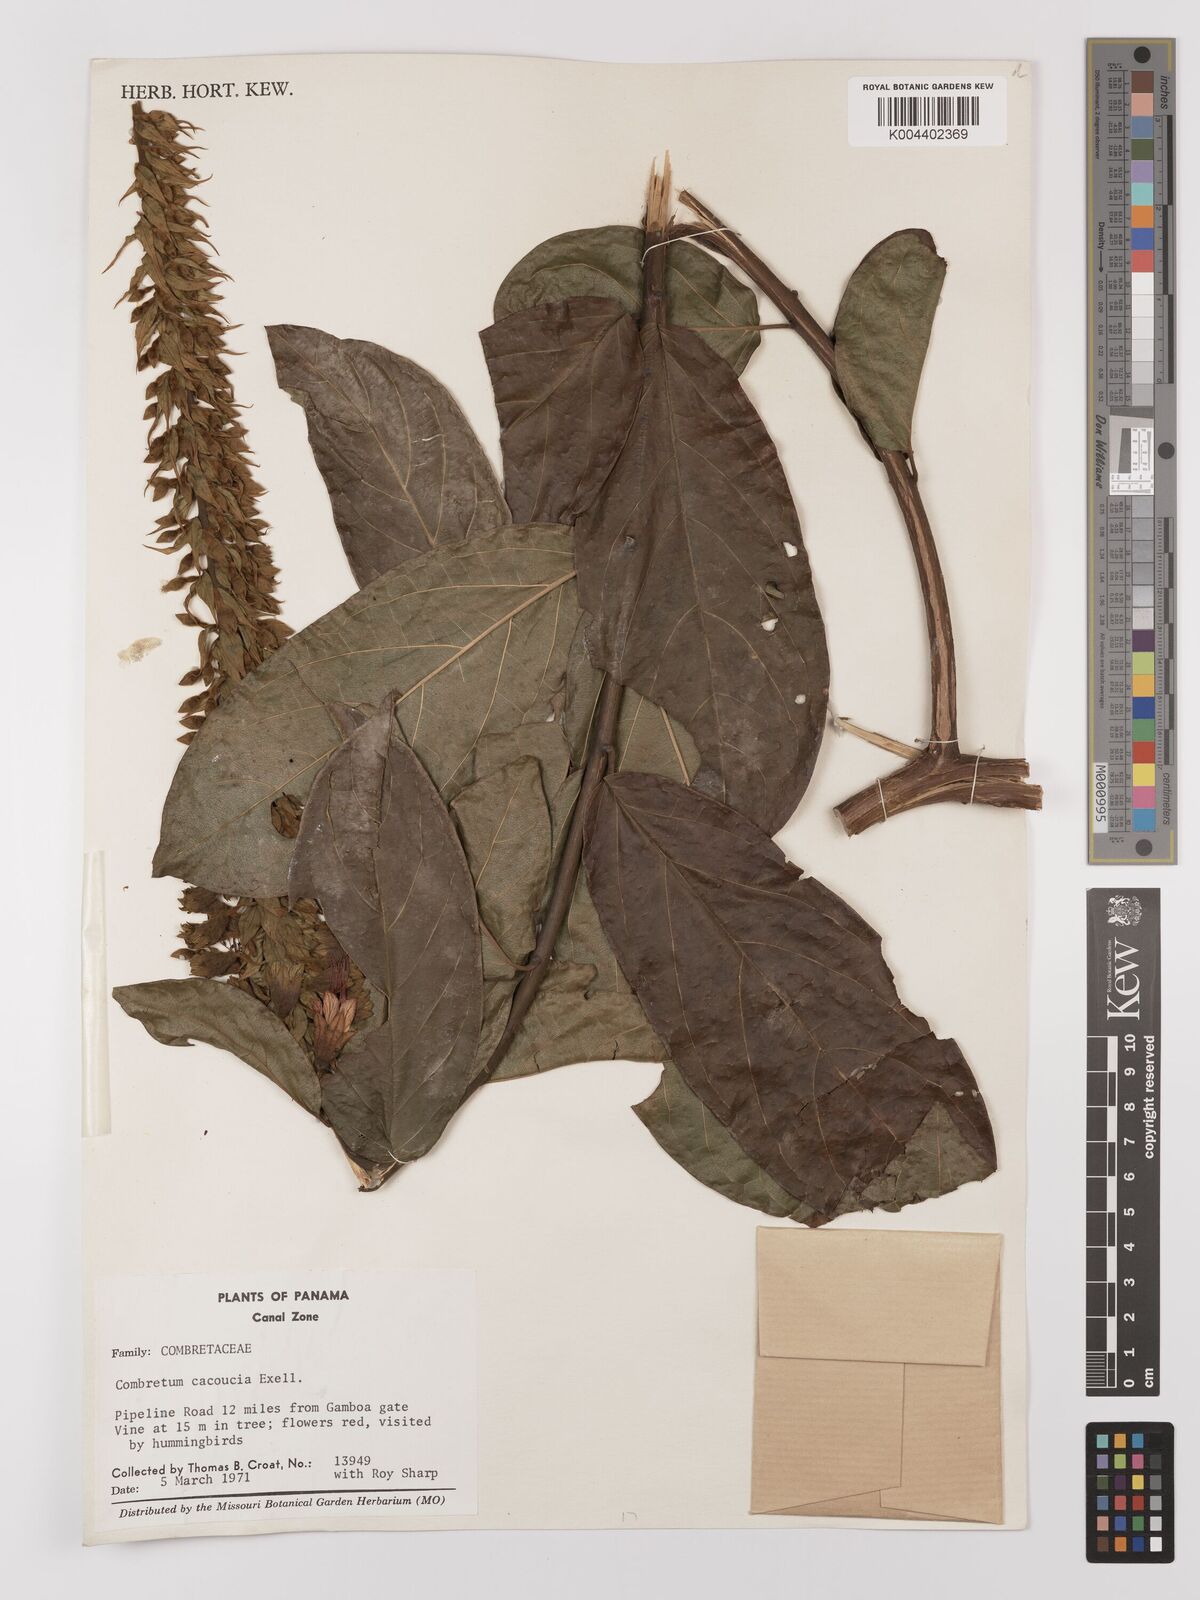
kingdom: Plantae
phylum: Tracheophyta
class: Magnoliopsida
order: Myrtales
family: Combretaceae
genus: Combretum
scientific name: Combretum cacoucia
